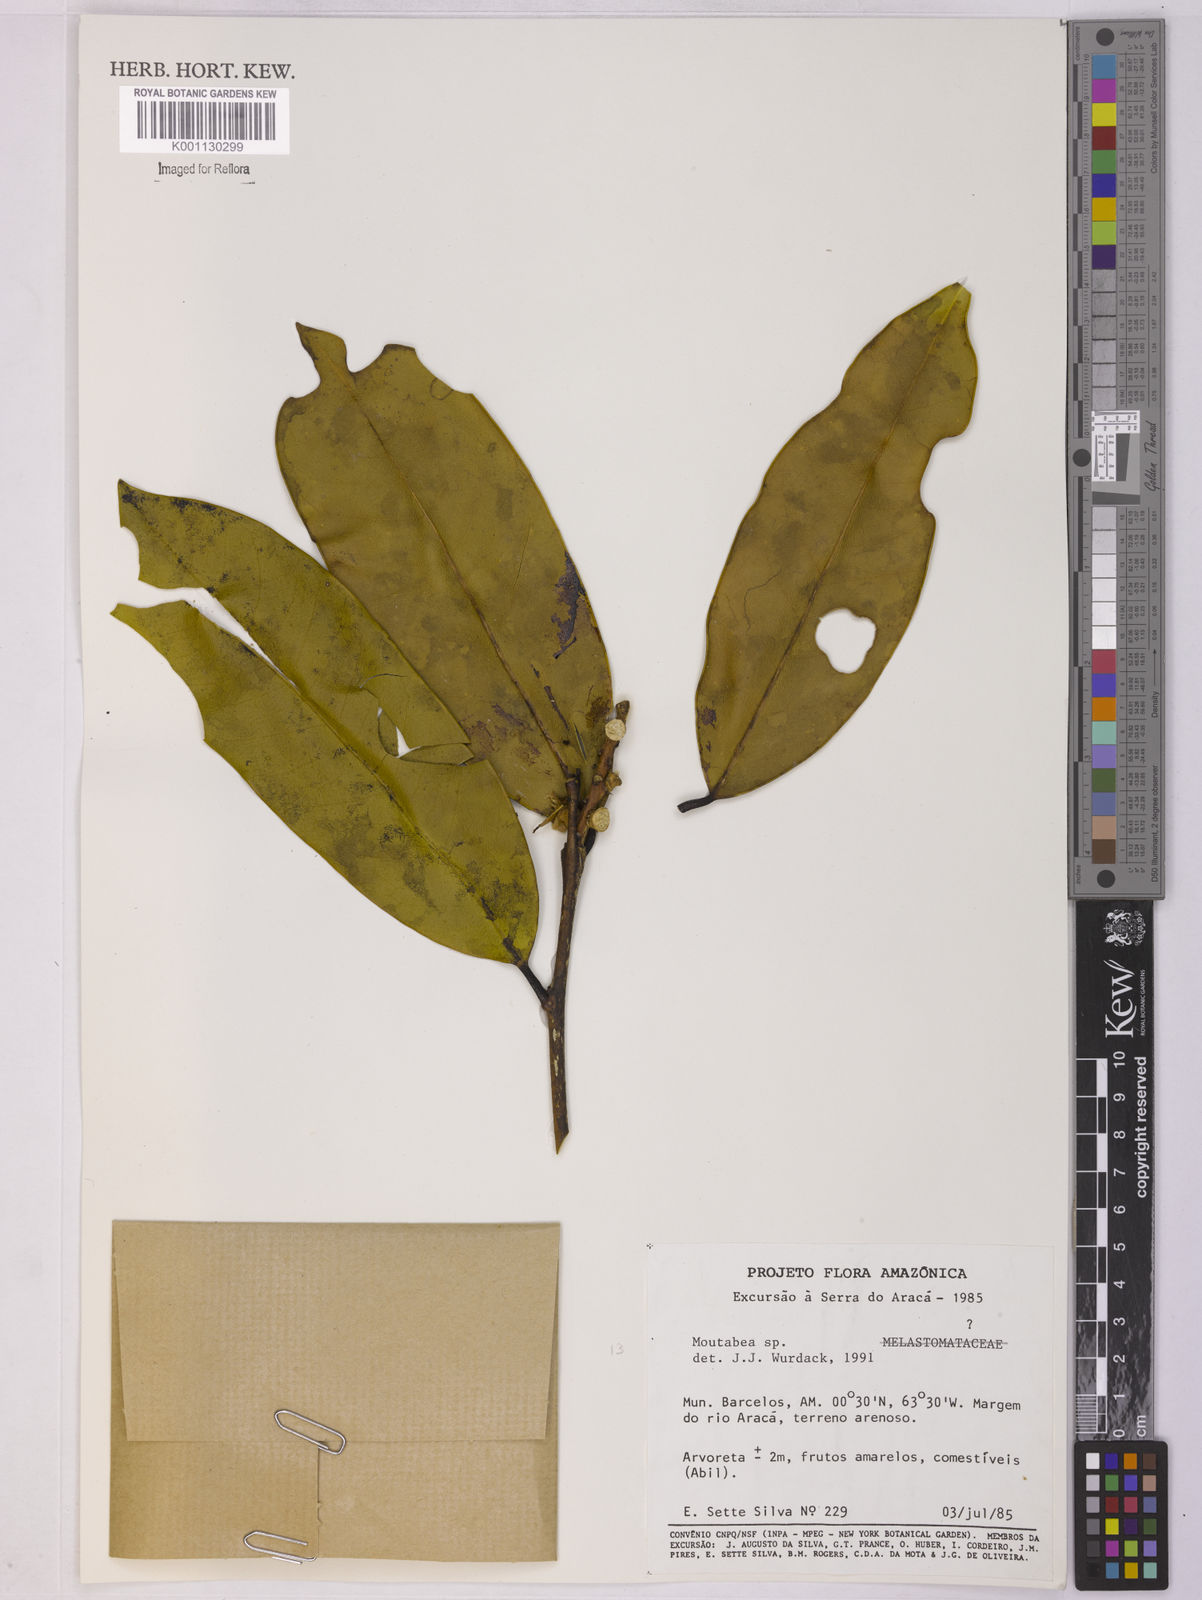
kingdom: Plantae
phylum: Tracheophyta
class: Magnoliopsida
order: Fabales
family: Polygalaceae
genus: Moutabea
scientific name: Moutabea
